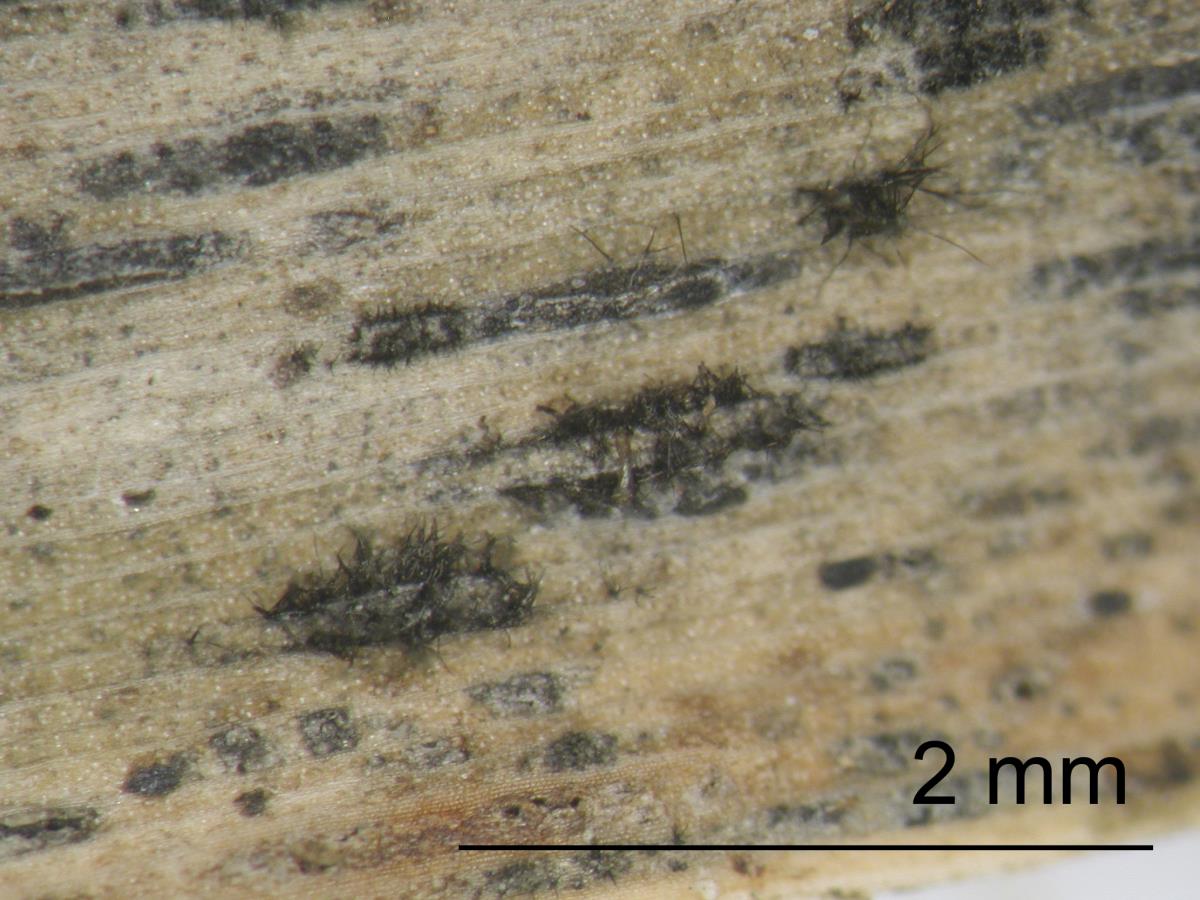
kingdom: Fungi
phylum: Ascomycota
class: Dothideomycetes
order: Capnodiales
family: Cladosporiaceae
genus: Cladosporium
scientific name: Cladosporium
